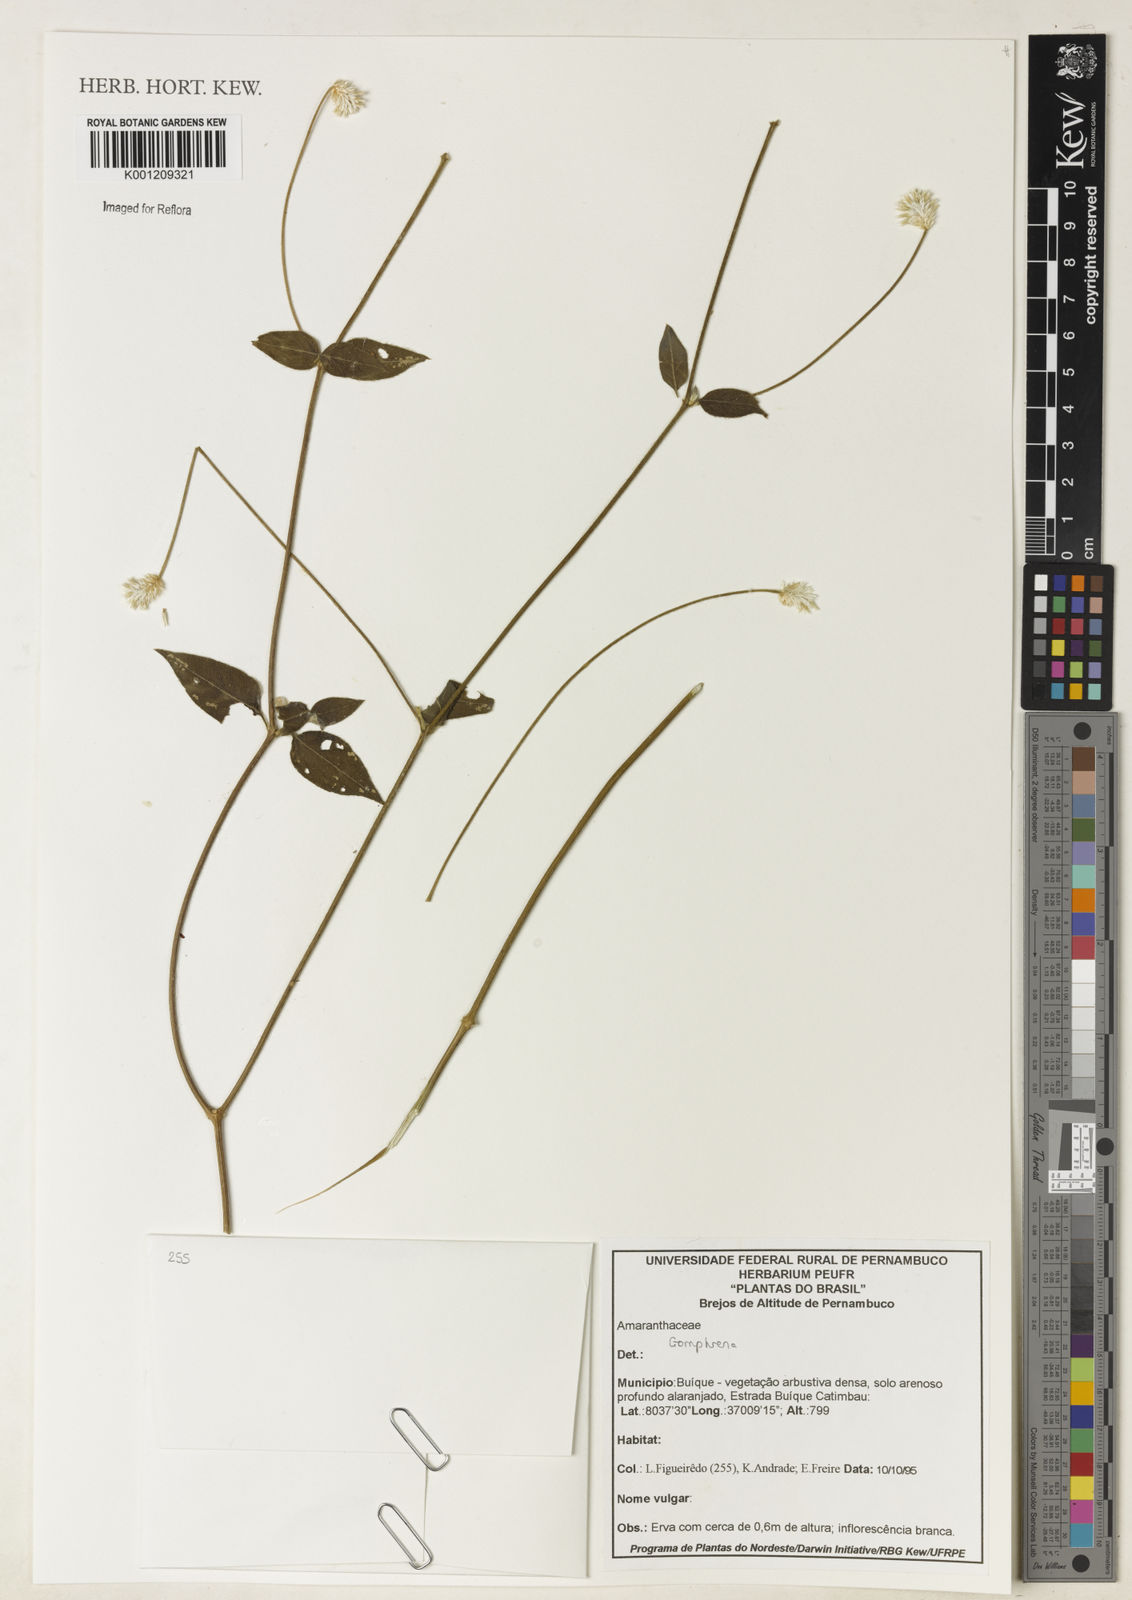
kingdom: Plantae
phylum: Tracheophyta
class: Magnoliopsida
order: Caryophyllales
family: Amaranthaceae
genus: Gomphrena
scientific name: Gomphrena
